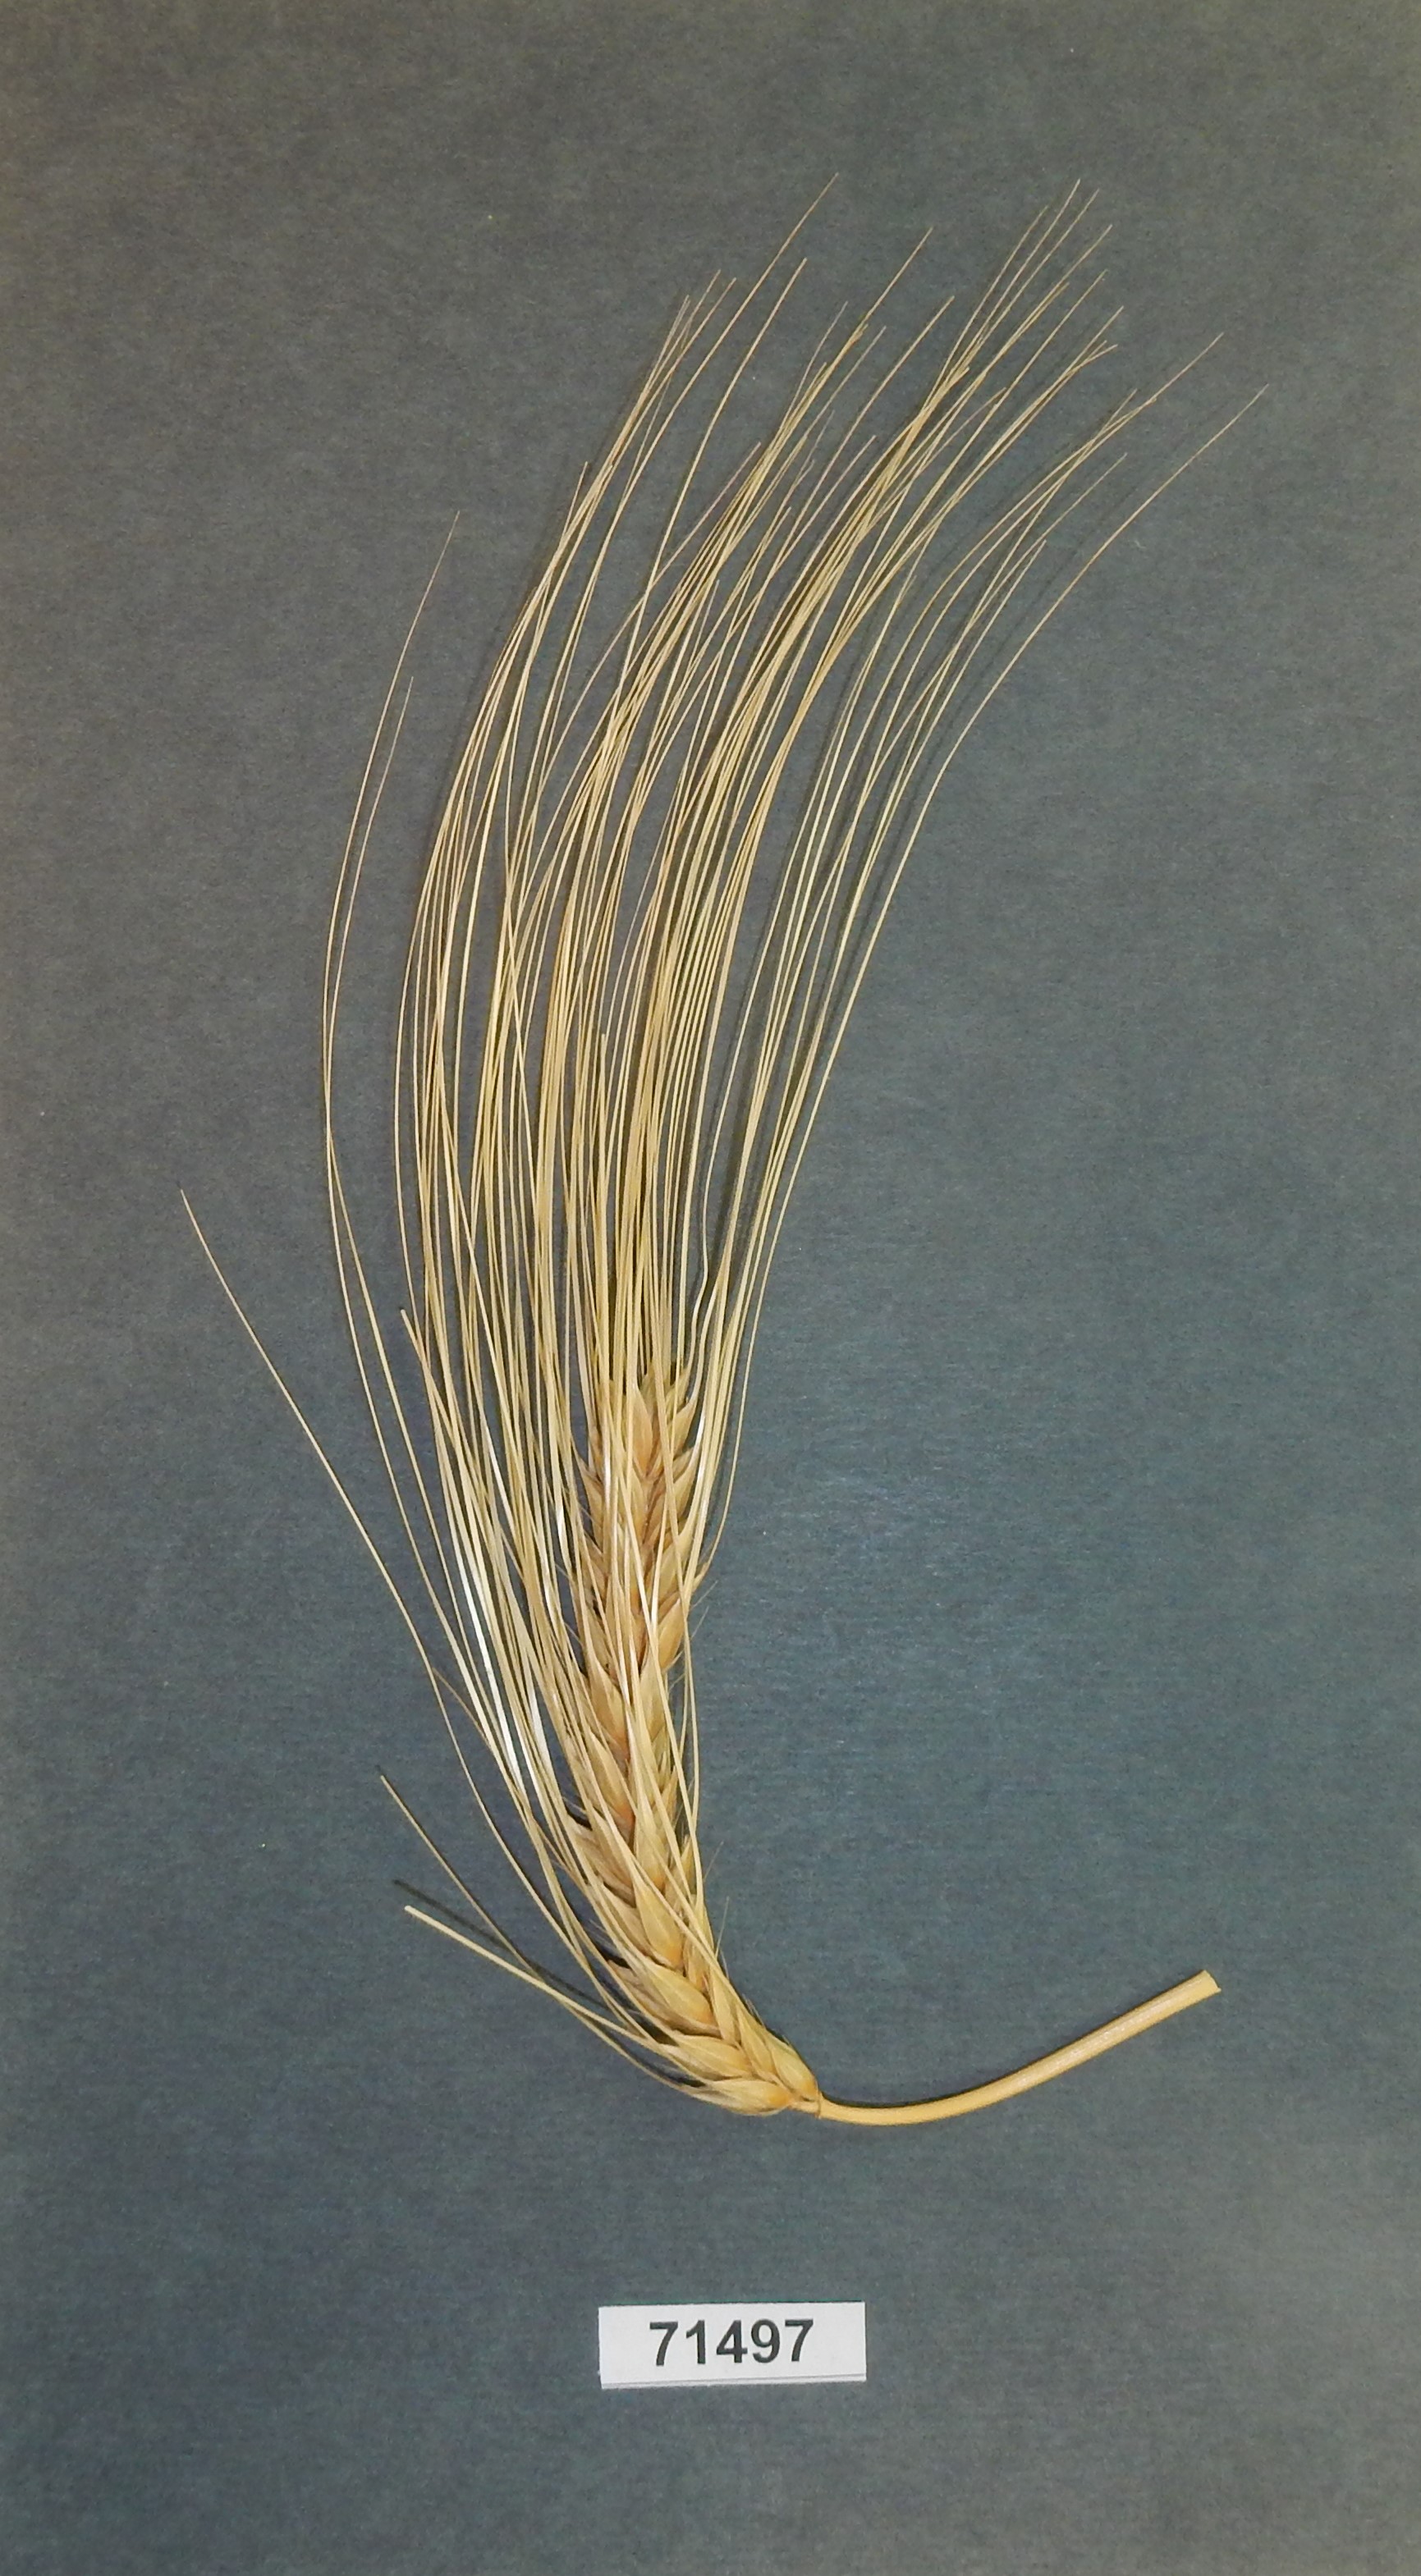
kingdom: Plantae
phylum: Tracheophyta
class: Liliopsida
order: Poales
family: Poaceae
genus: Hordeum
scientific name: Hordeum vulgare
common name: Barley
